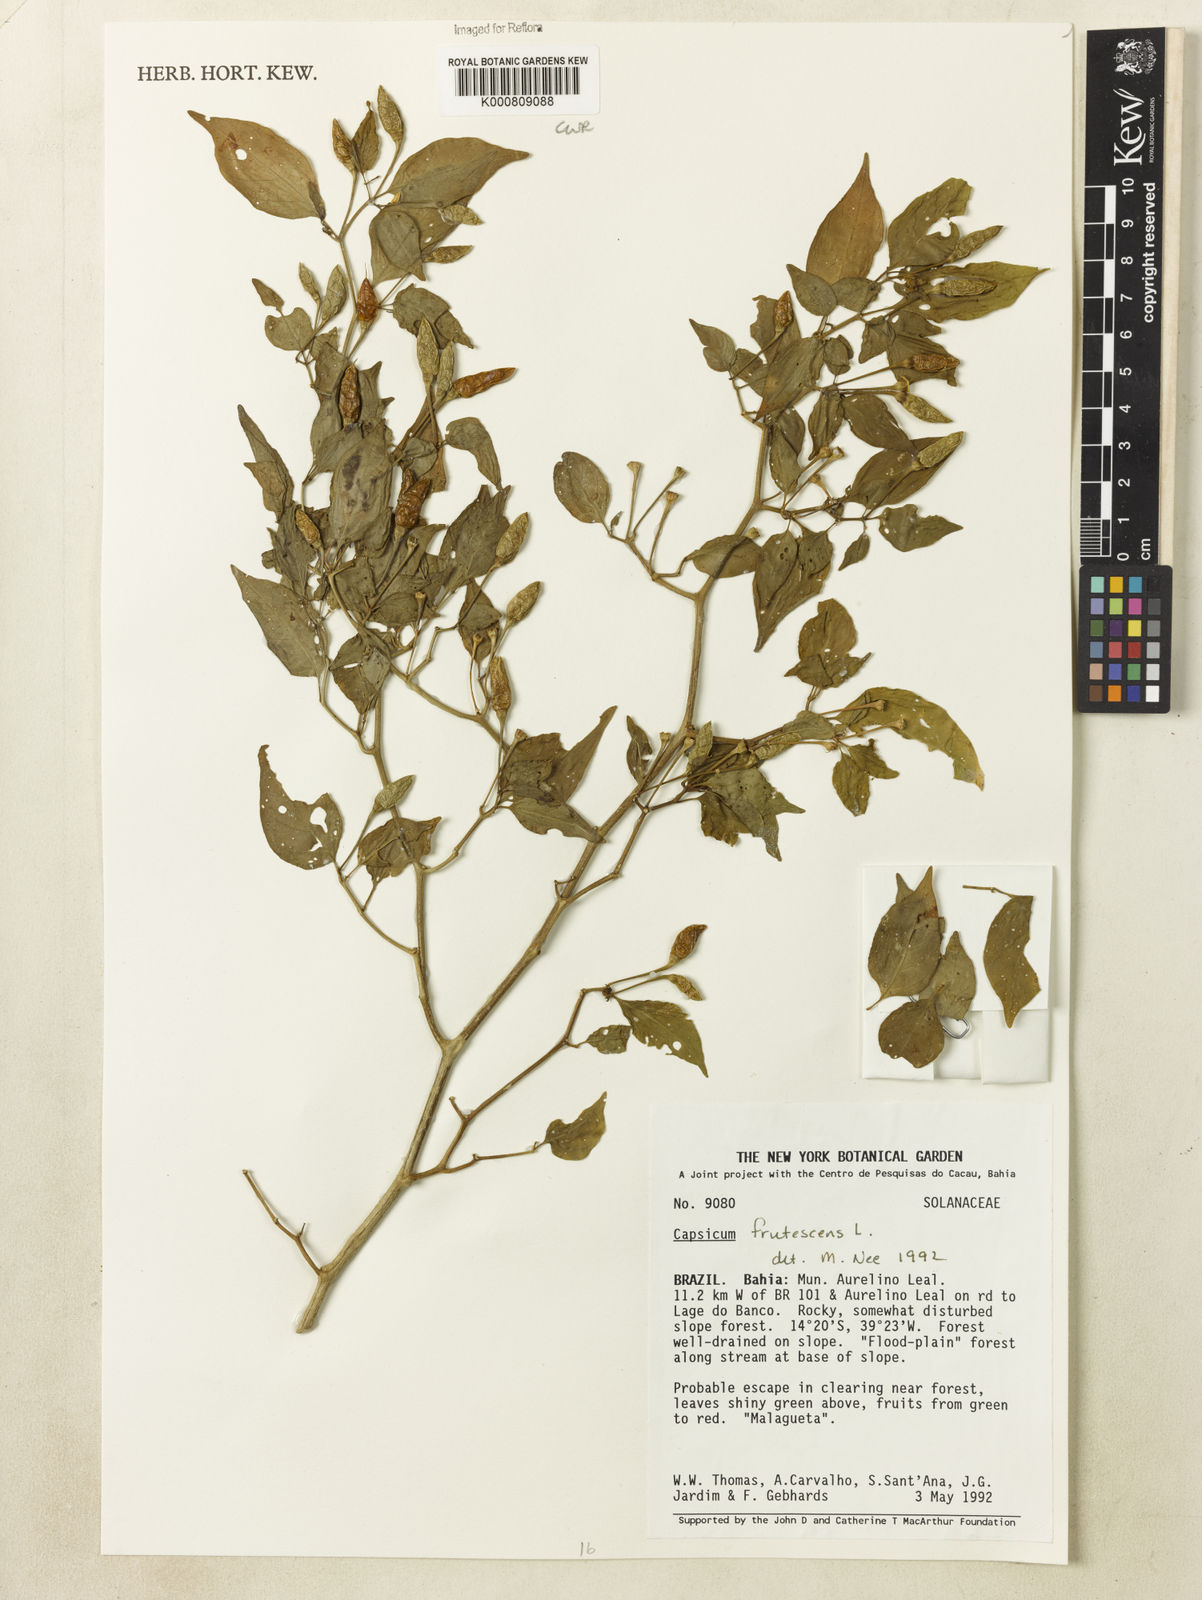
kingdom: Plantae
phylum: Tracheophyta
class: Magnoliopsida
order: Solanales
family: Solanaceae
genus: Capsicum
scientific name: Capsicum frutescens
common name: Bird pepper
